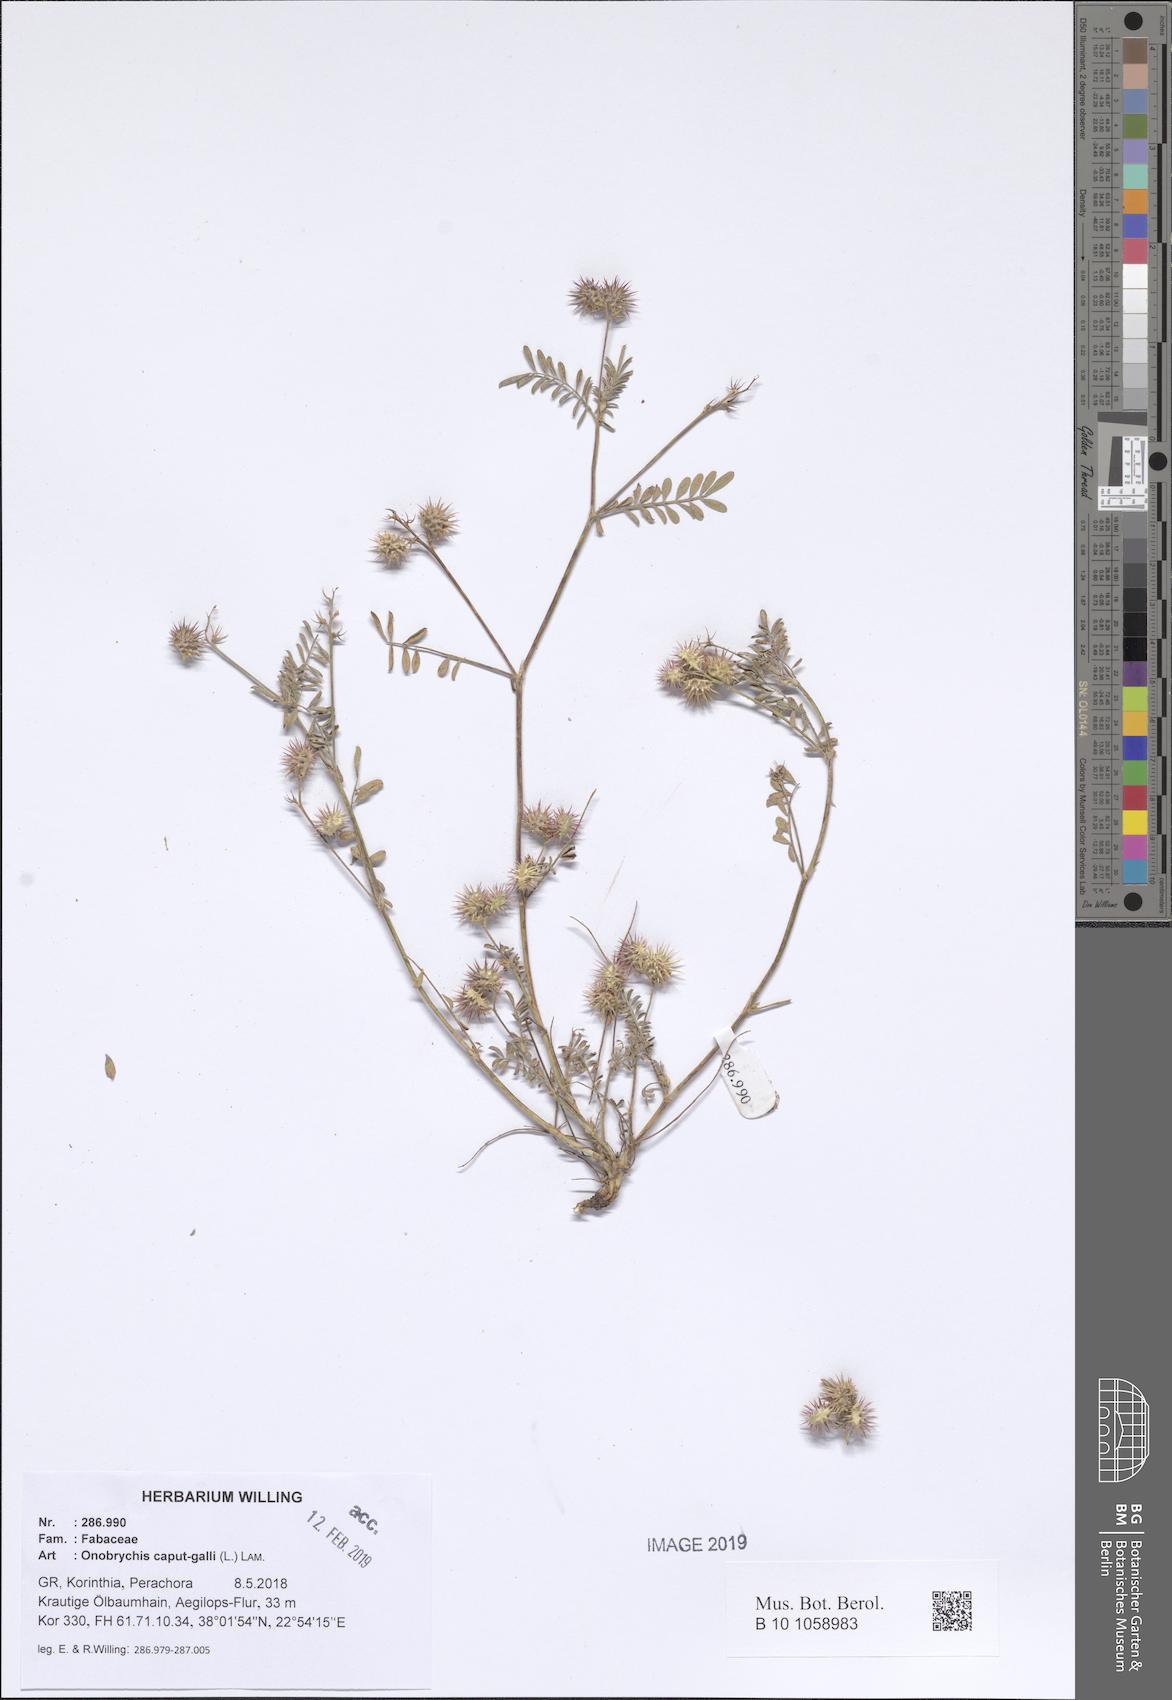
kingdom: Plantae
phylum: Tracheophyta
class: Magnoliopsida
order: Fabales
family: Fabaceae
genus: Onobrychis
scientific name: Onobrychis caput-galli
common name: Cockscomb sainfoin
